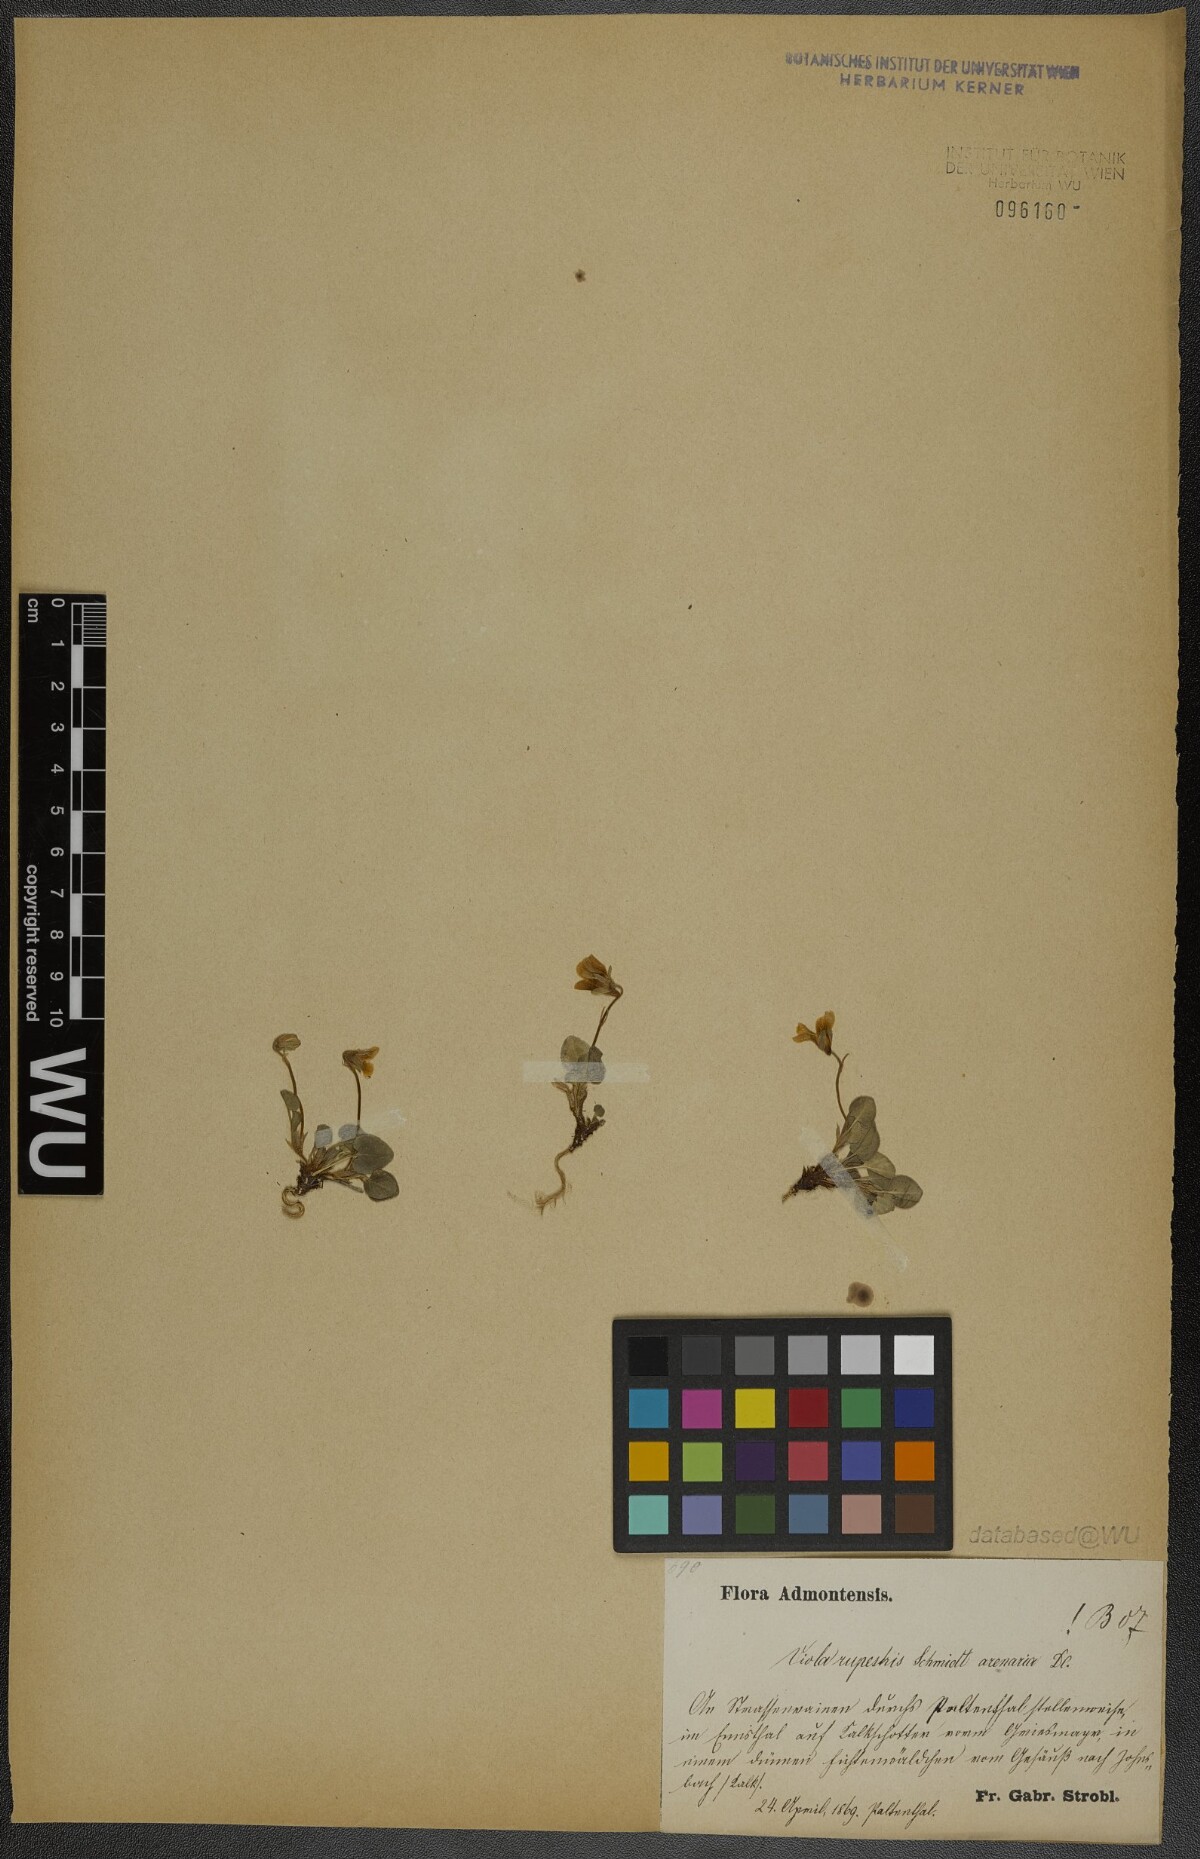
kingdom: Plantae
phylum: Tracheophyta
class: Magnoliopsida
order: Malpighiales
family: Violaceae
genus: Viola
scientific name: Viola rupestris
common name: Teesdale violet
